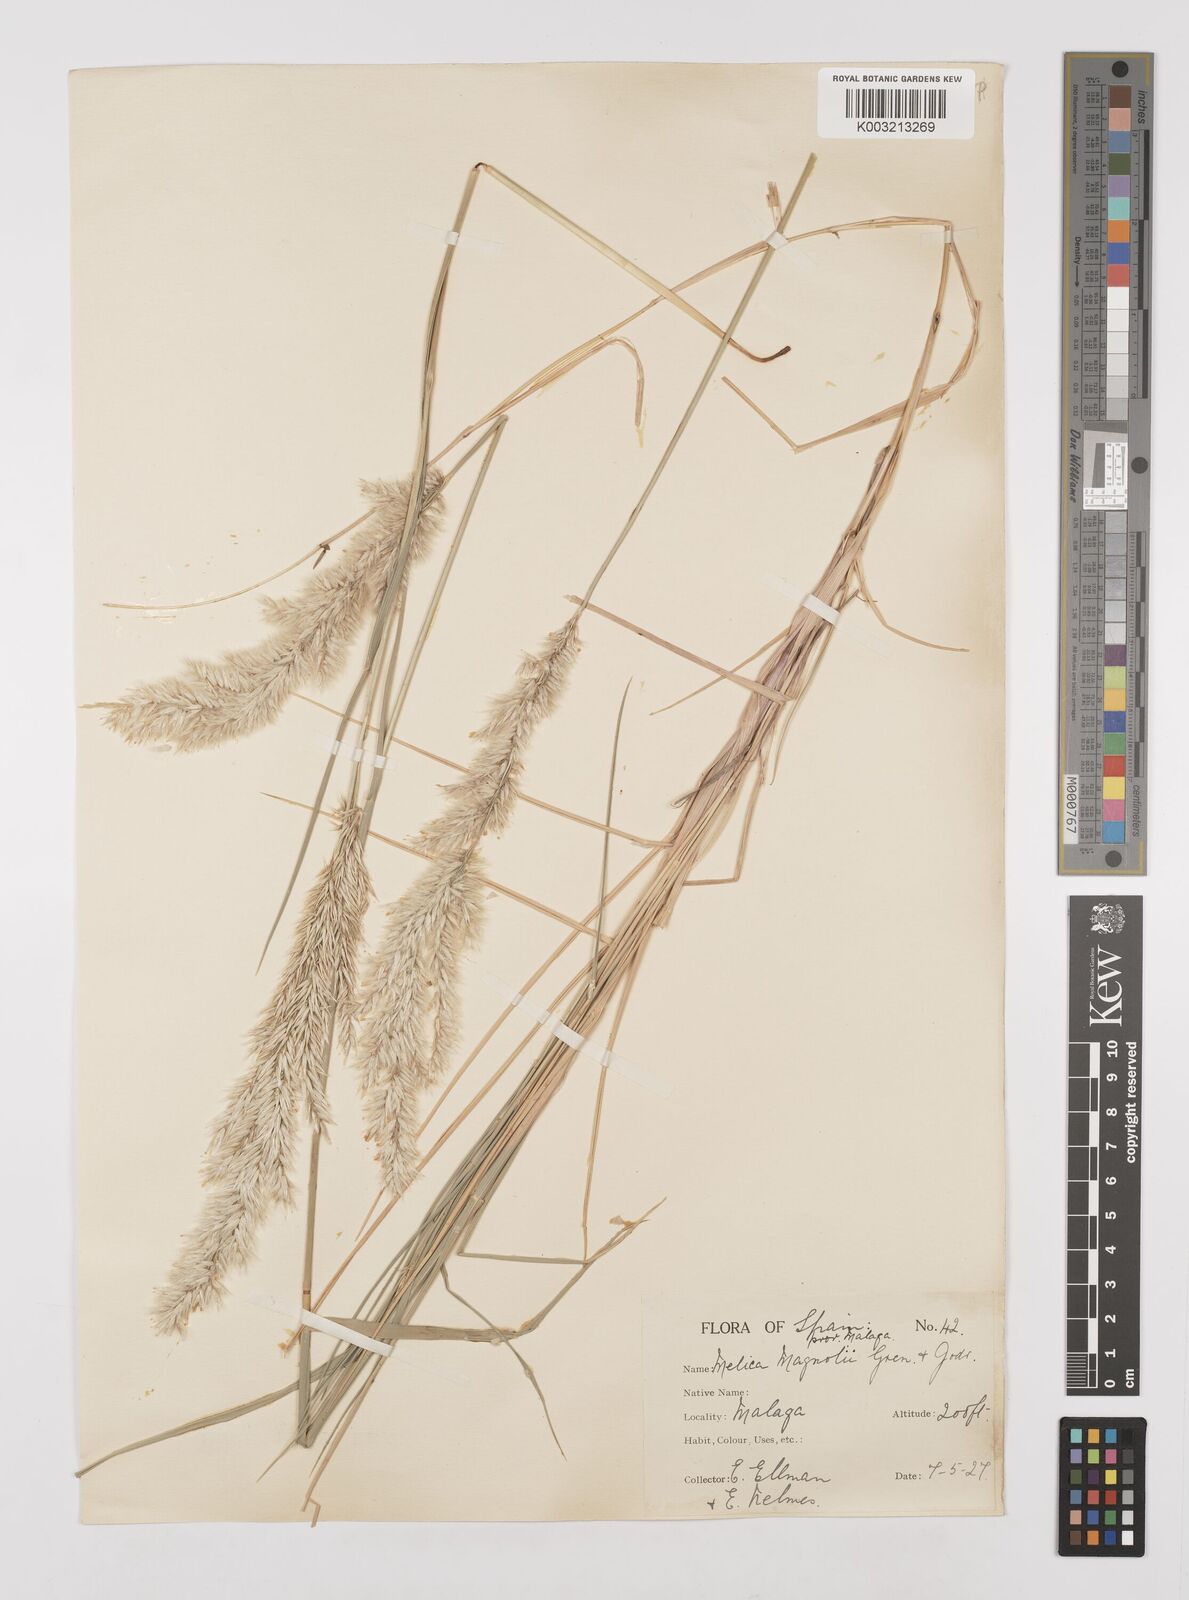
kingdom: Plantae
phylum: Tracheophyta
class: Liliopsida
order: Poales
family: Poaceae
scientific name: Poaceae
